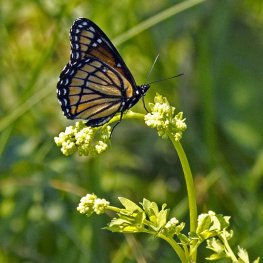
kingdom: Animalia
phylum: Arthropoda
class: Insecta
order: Lepidoptera
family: Nymphalidae
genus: Limenitis
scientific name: Limenitis archippus
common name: Viceroy
